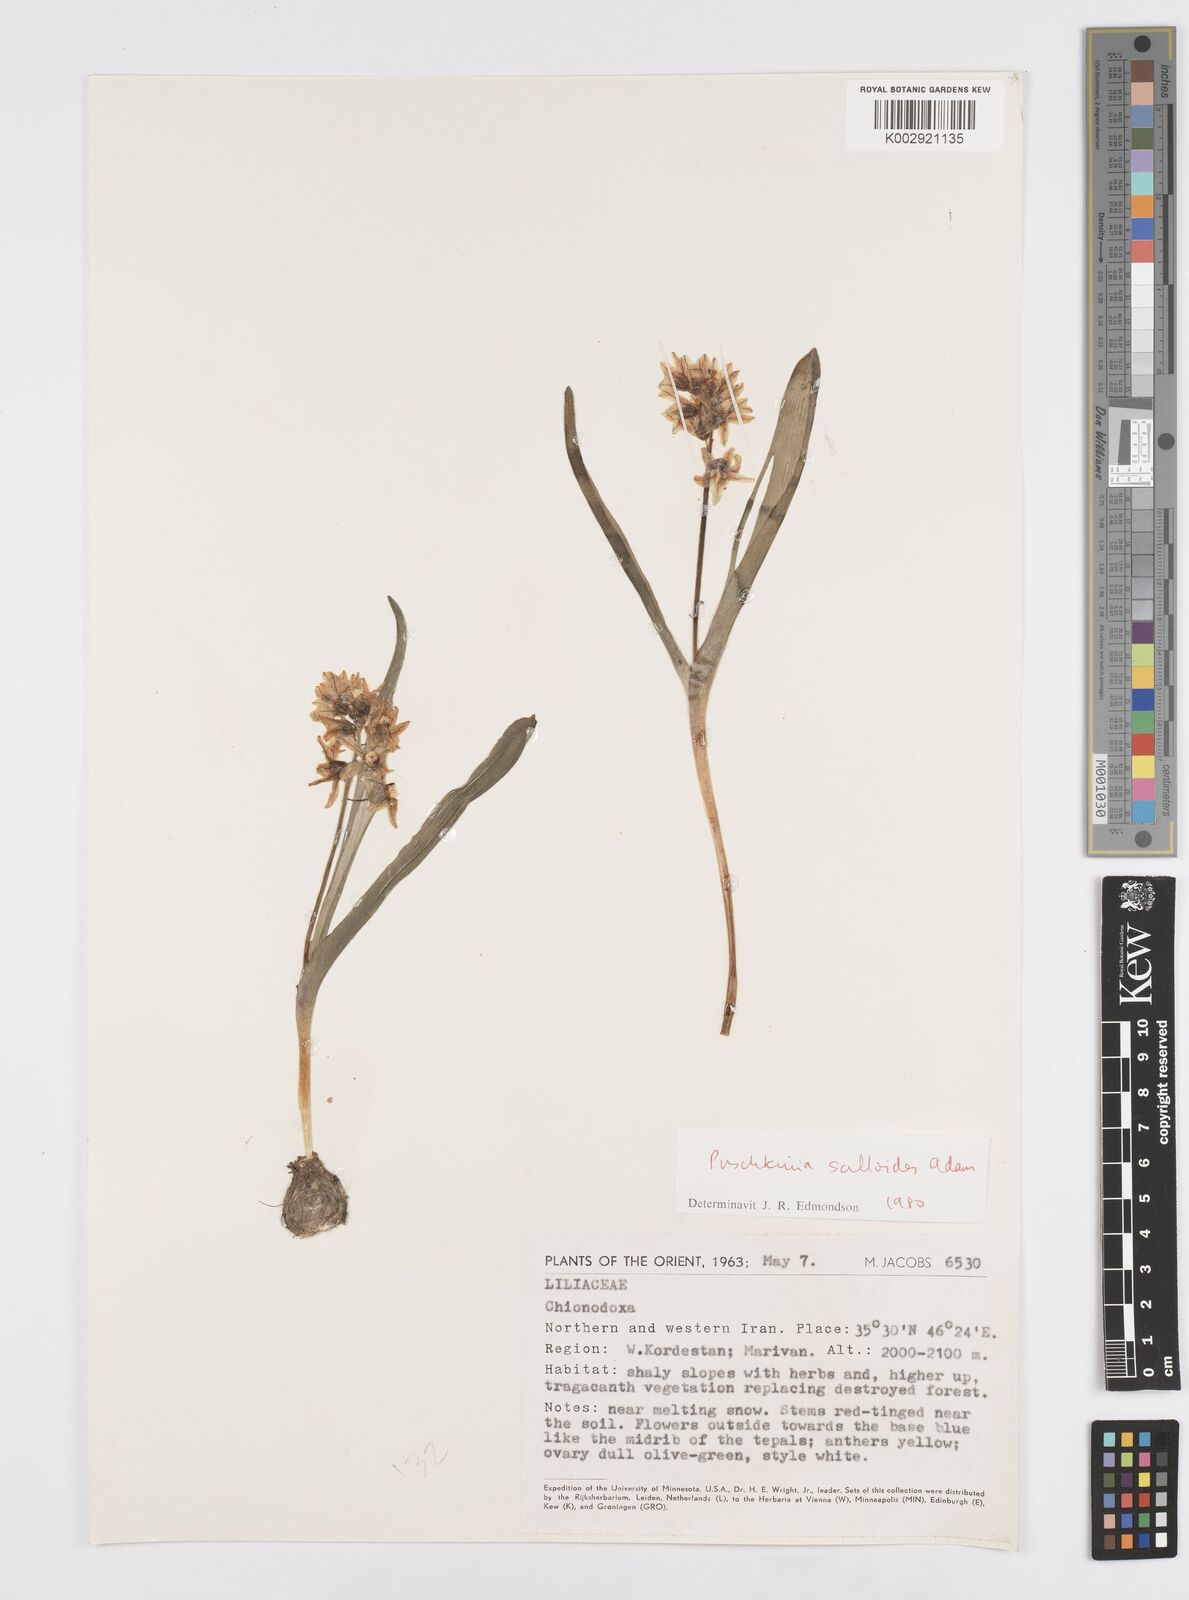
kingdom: Plantae
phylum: Tracheophyta
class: Liliopsida
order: Asparagales
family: Asparagaceae
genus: Puschkinia
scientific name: Puschkinia scilloides
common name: Striped squill
